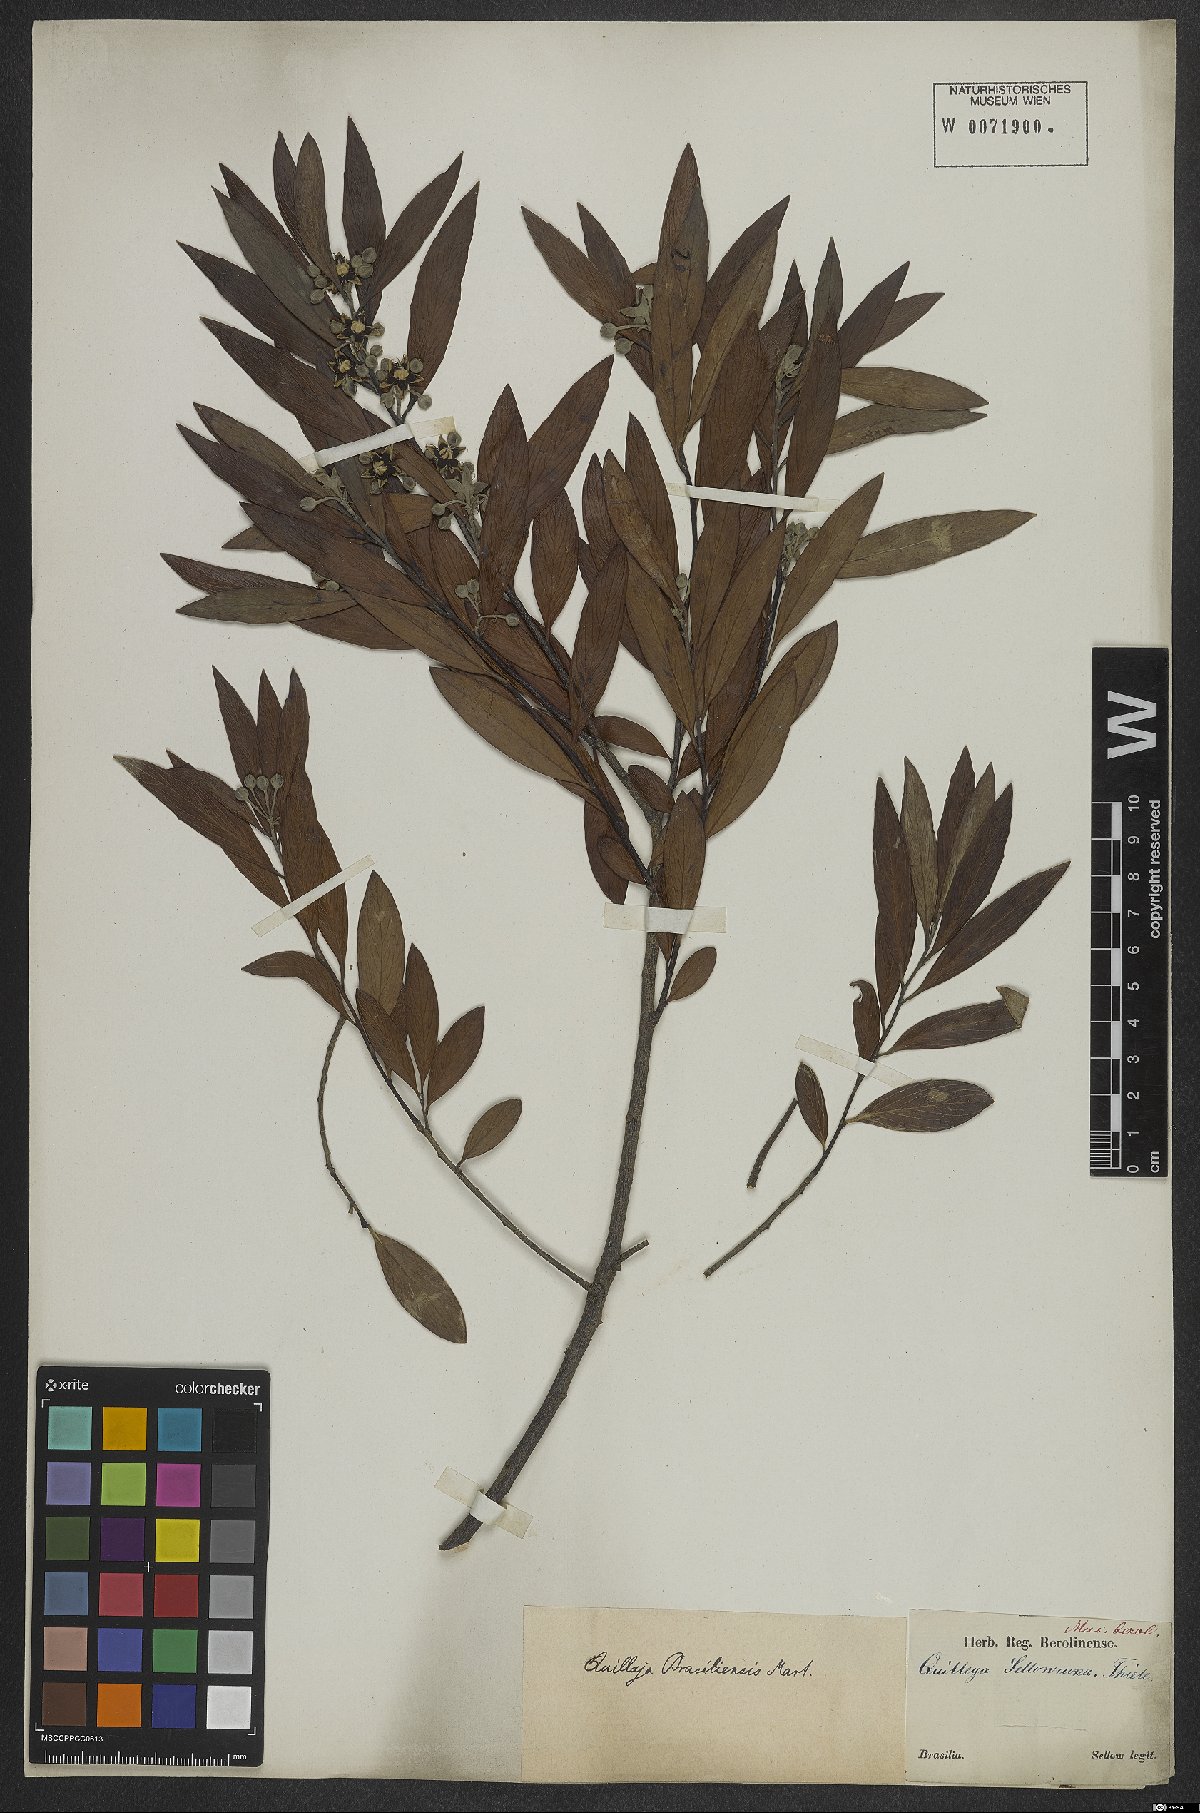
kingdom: Plantae
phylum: Tracheophyta
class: Magnoliopsida
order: Fabales
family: Quillajaceae
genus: Quillaja
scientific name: Quillaja brasiliensis
